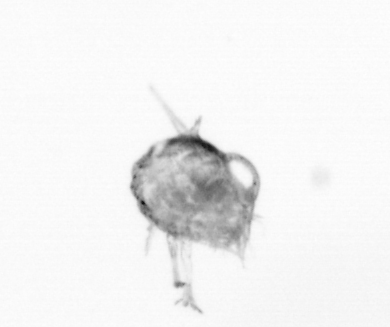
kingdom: Animalia
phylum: Arthropoda
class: Copepoda
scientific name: Copepoda
